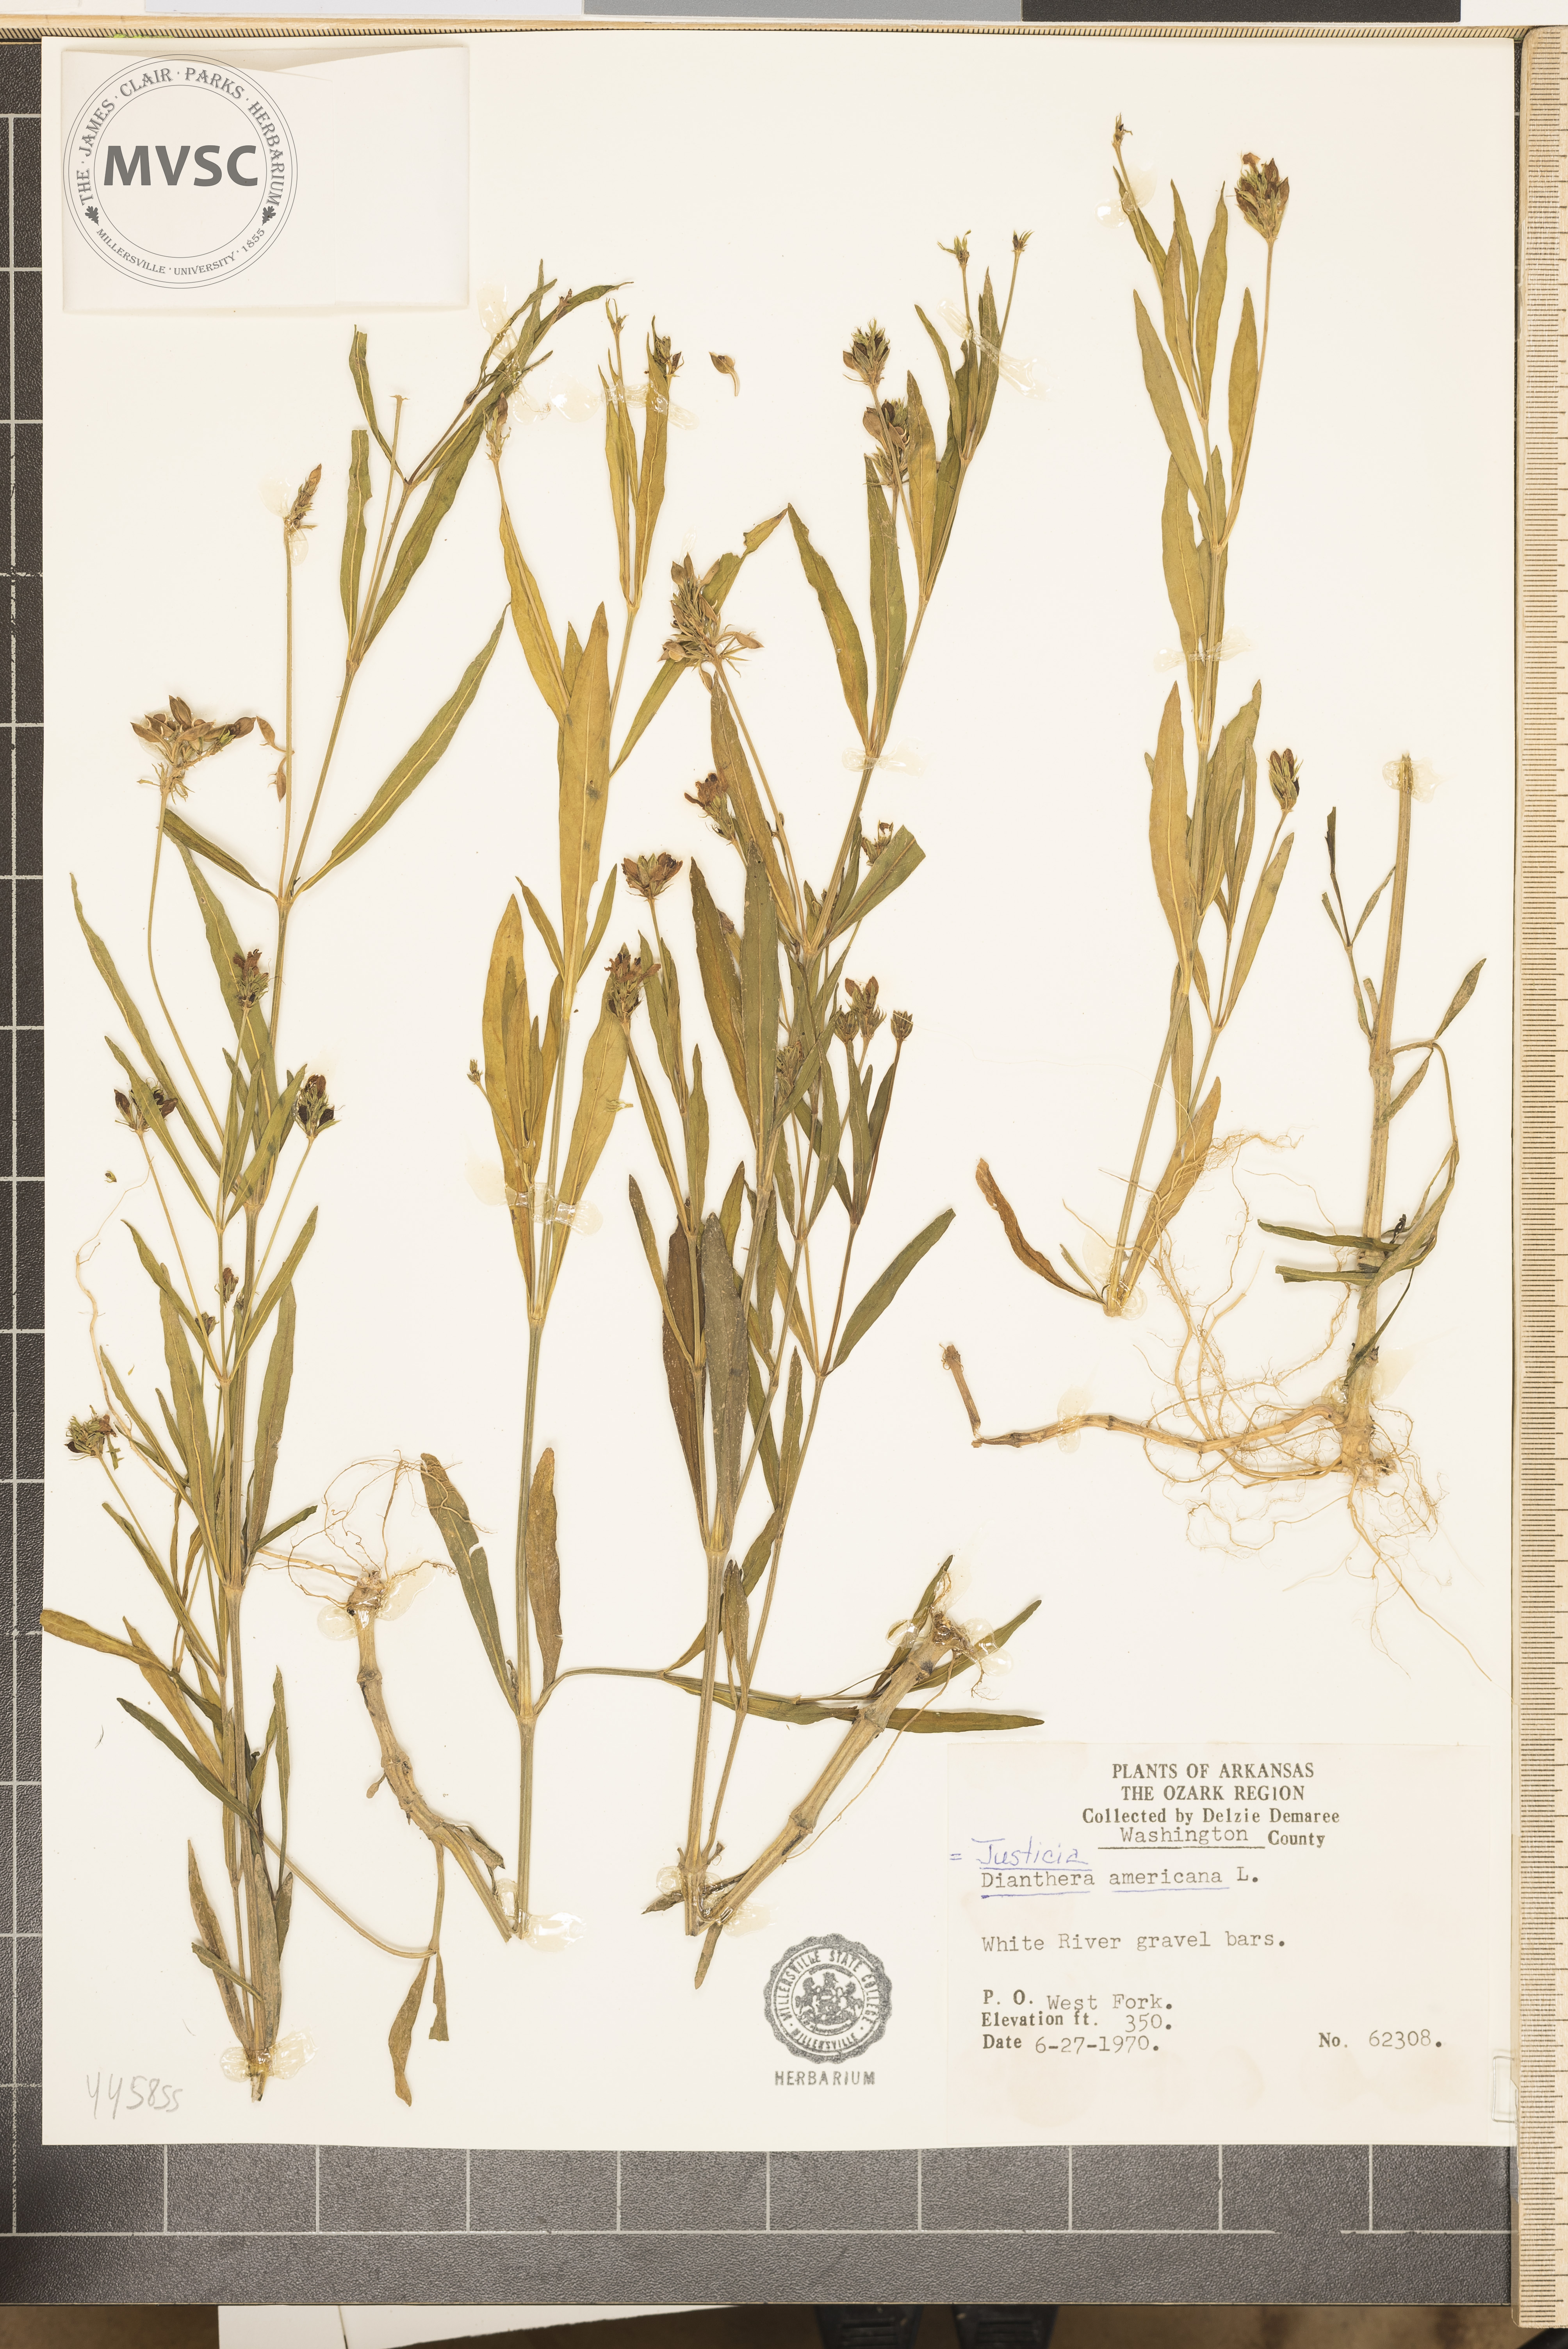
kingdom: Plantae
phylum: Tracheophyta
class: Magnoliopsida
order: Lamiales
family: Acanthaceae
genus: Dianthera
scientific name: Dianthera americana
